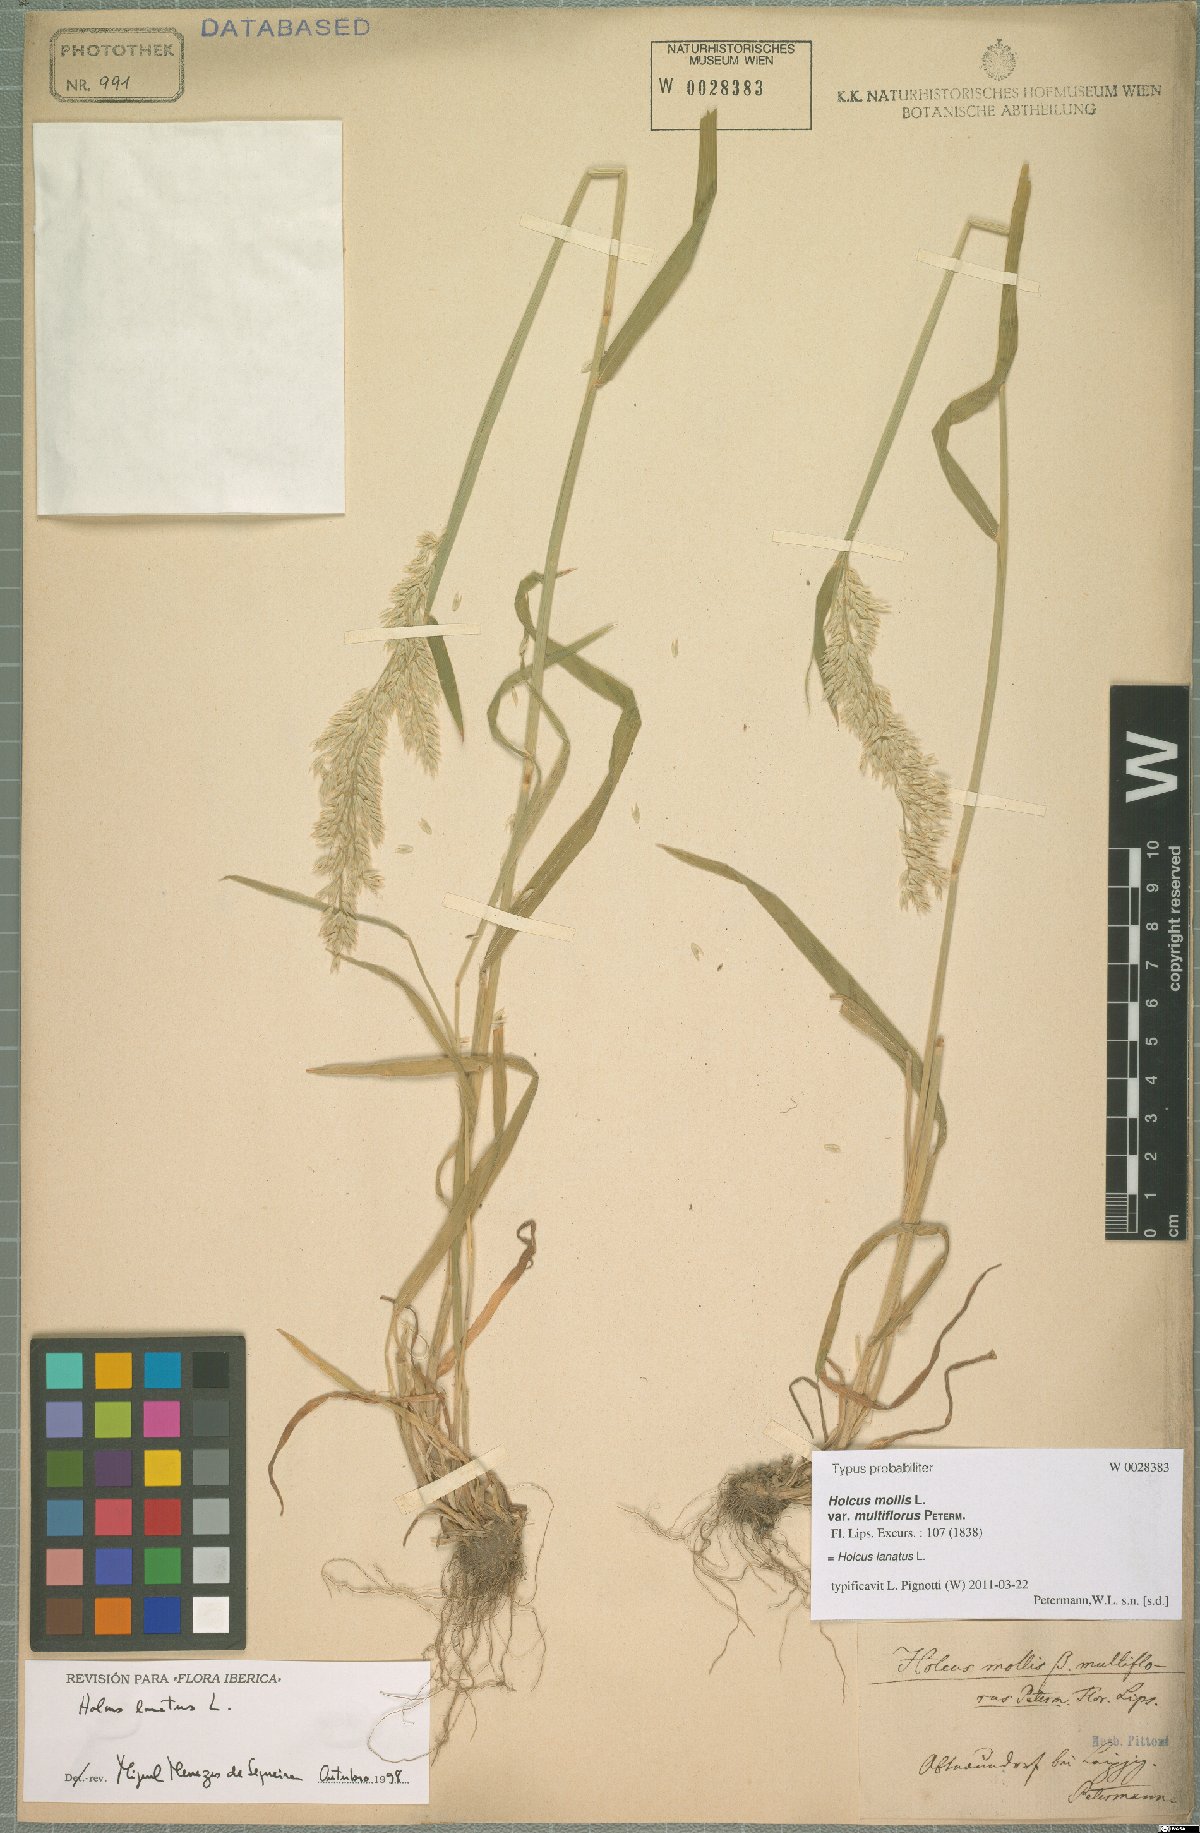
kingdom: Plantae
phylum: Tracheophyta
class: Liliopsida
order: Poales
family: Poaceae
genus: Holcus
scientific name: Holcus lanatus
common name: Yorkshire-fog
